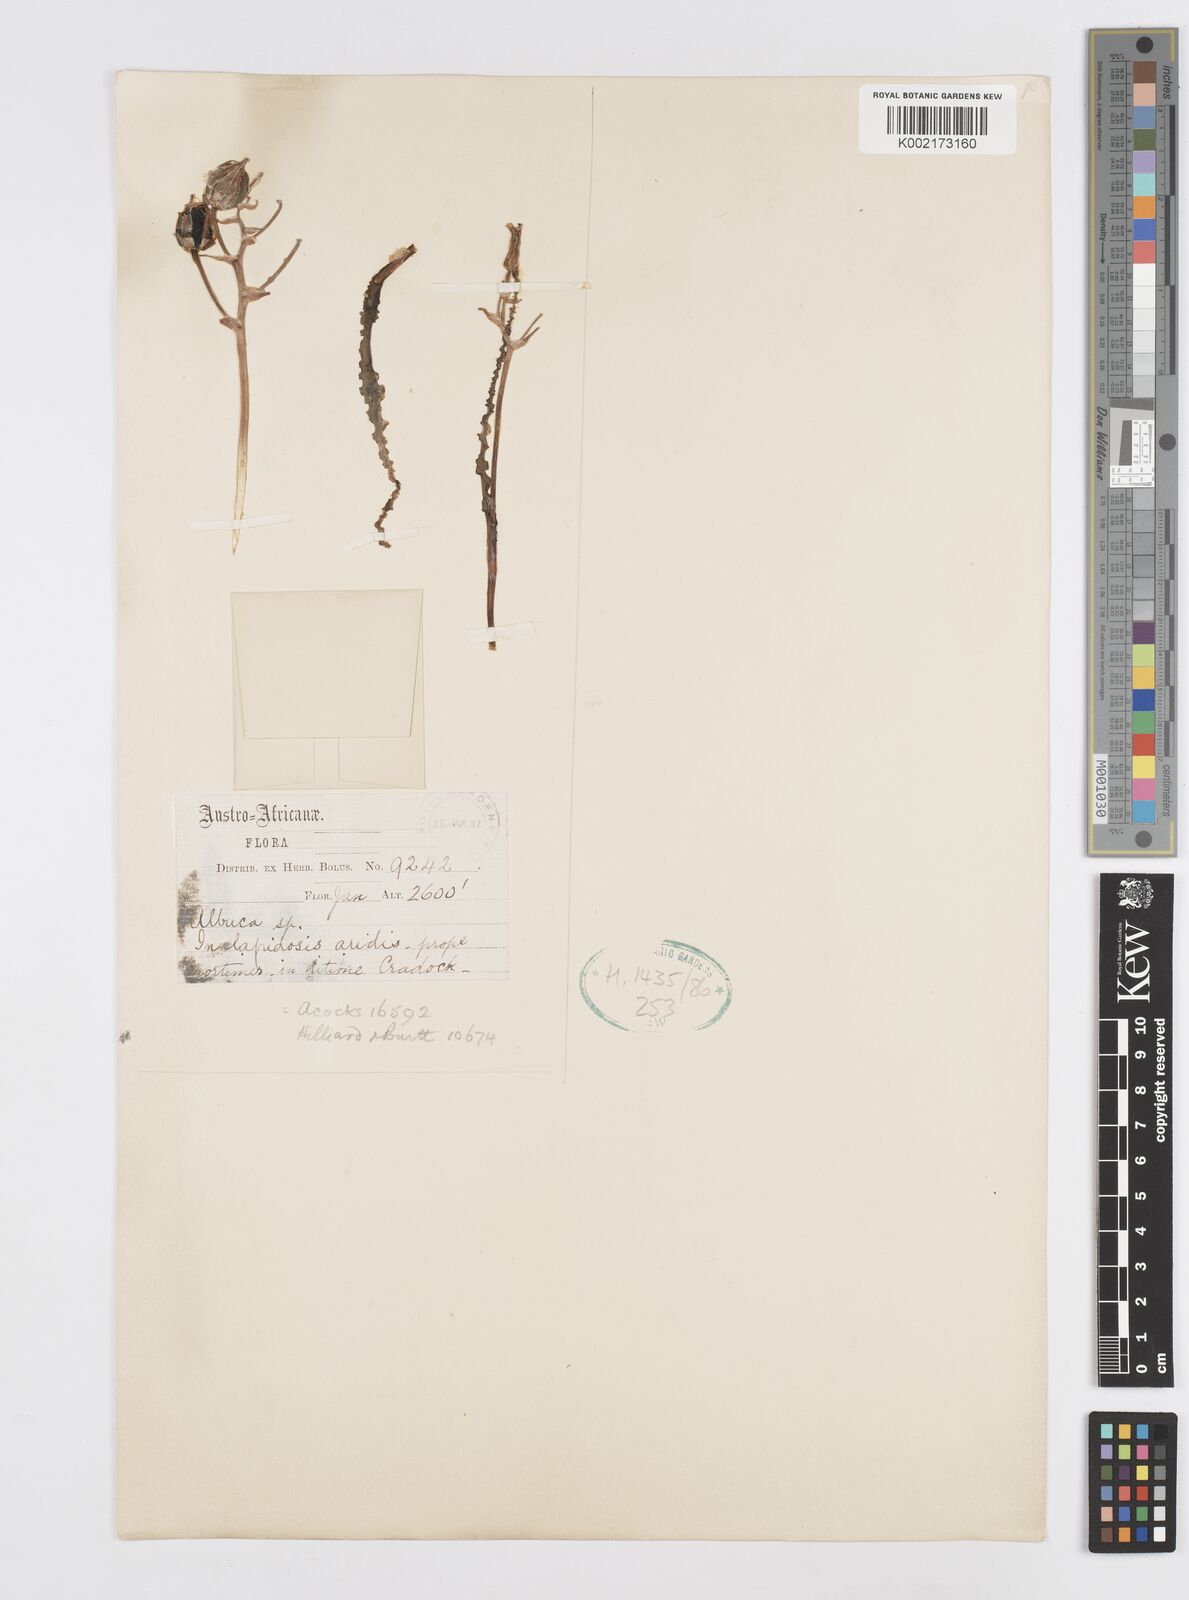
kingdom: Plantae
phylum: Tracheophyta
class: Liliopsida
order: Asparagales
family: Asparagaceae
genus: Albuca
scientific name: Albuca
